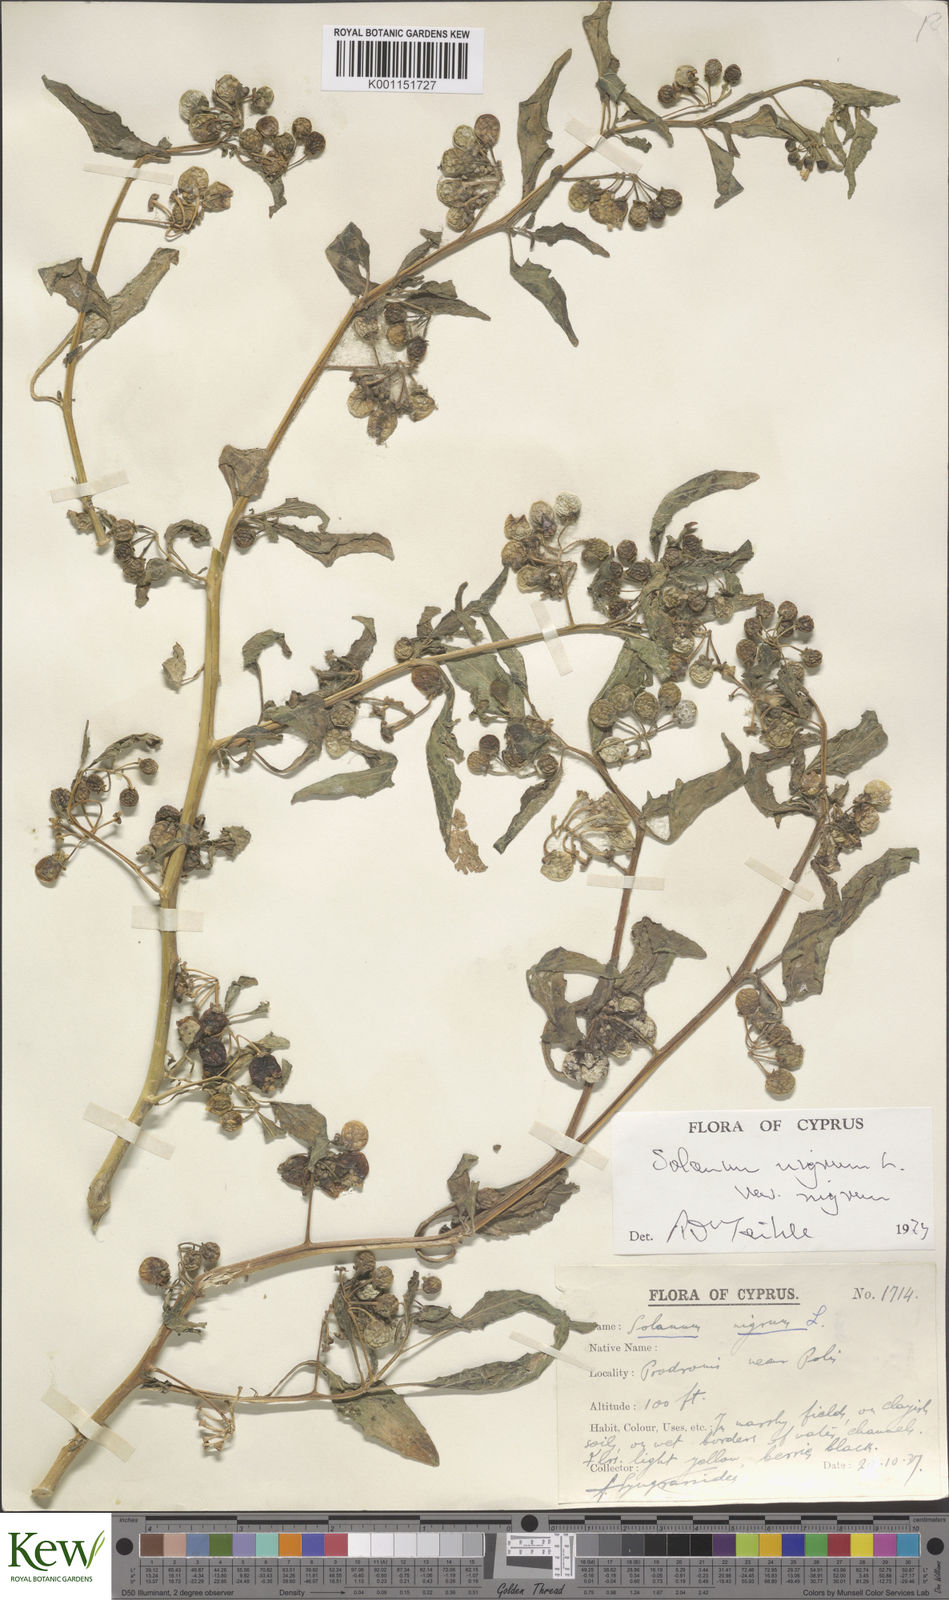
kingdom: Plantae
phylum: Tracheophyta
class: Magnoliopsida
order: Solanales
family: Solanaceae
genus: Solanum
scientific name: Solanum nigrum
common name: Black nightshade
